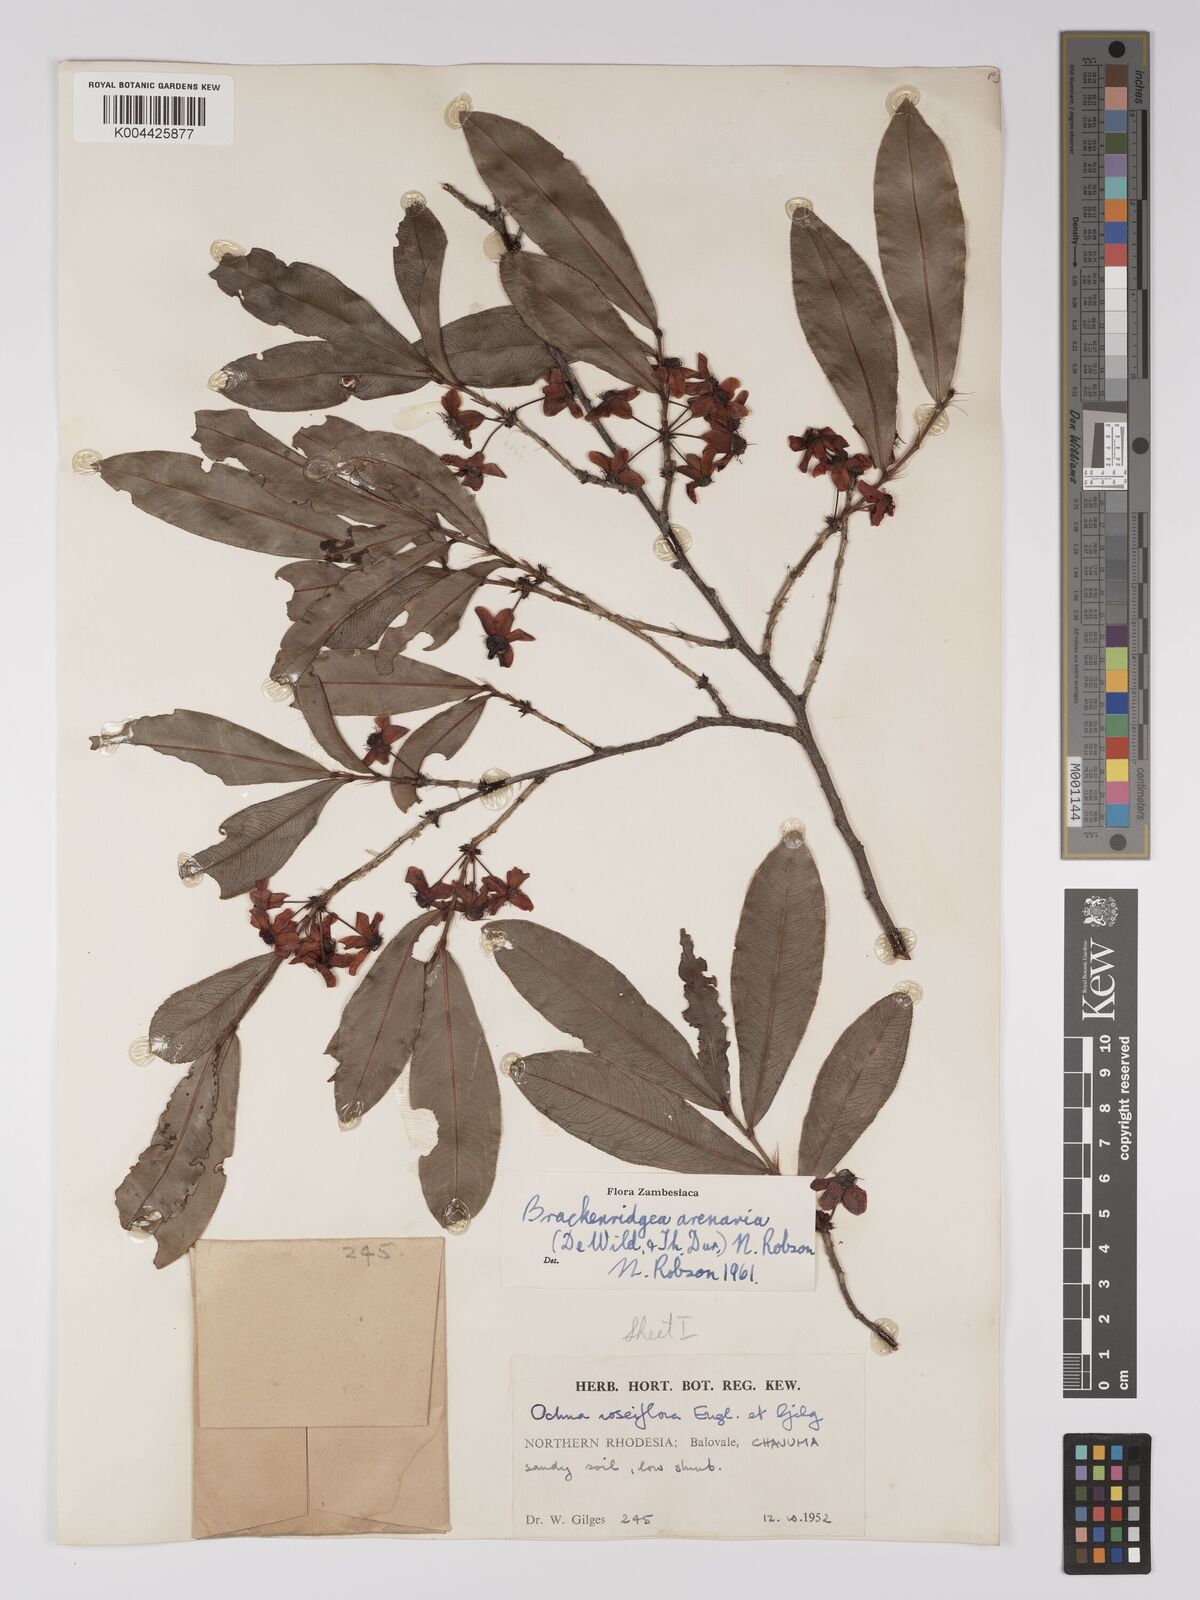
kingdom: Plantae
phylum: Tracheophyta
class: Magnoliopsida
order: Malpighiales
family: Ochnaceae
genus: Ochna
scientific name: Ochna arenaria
